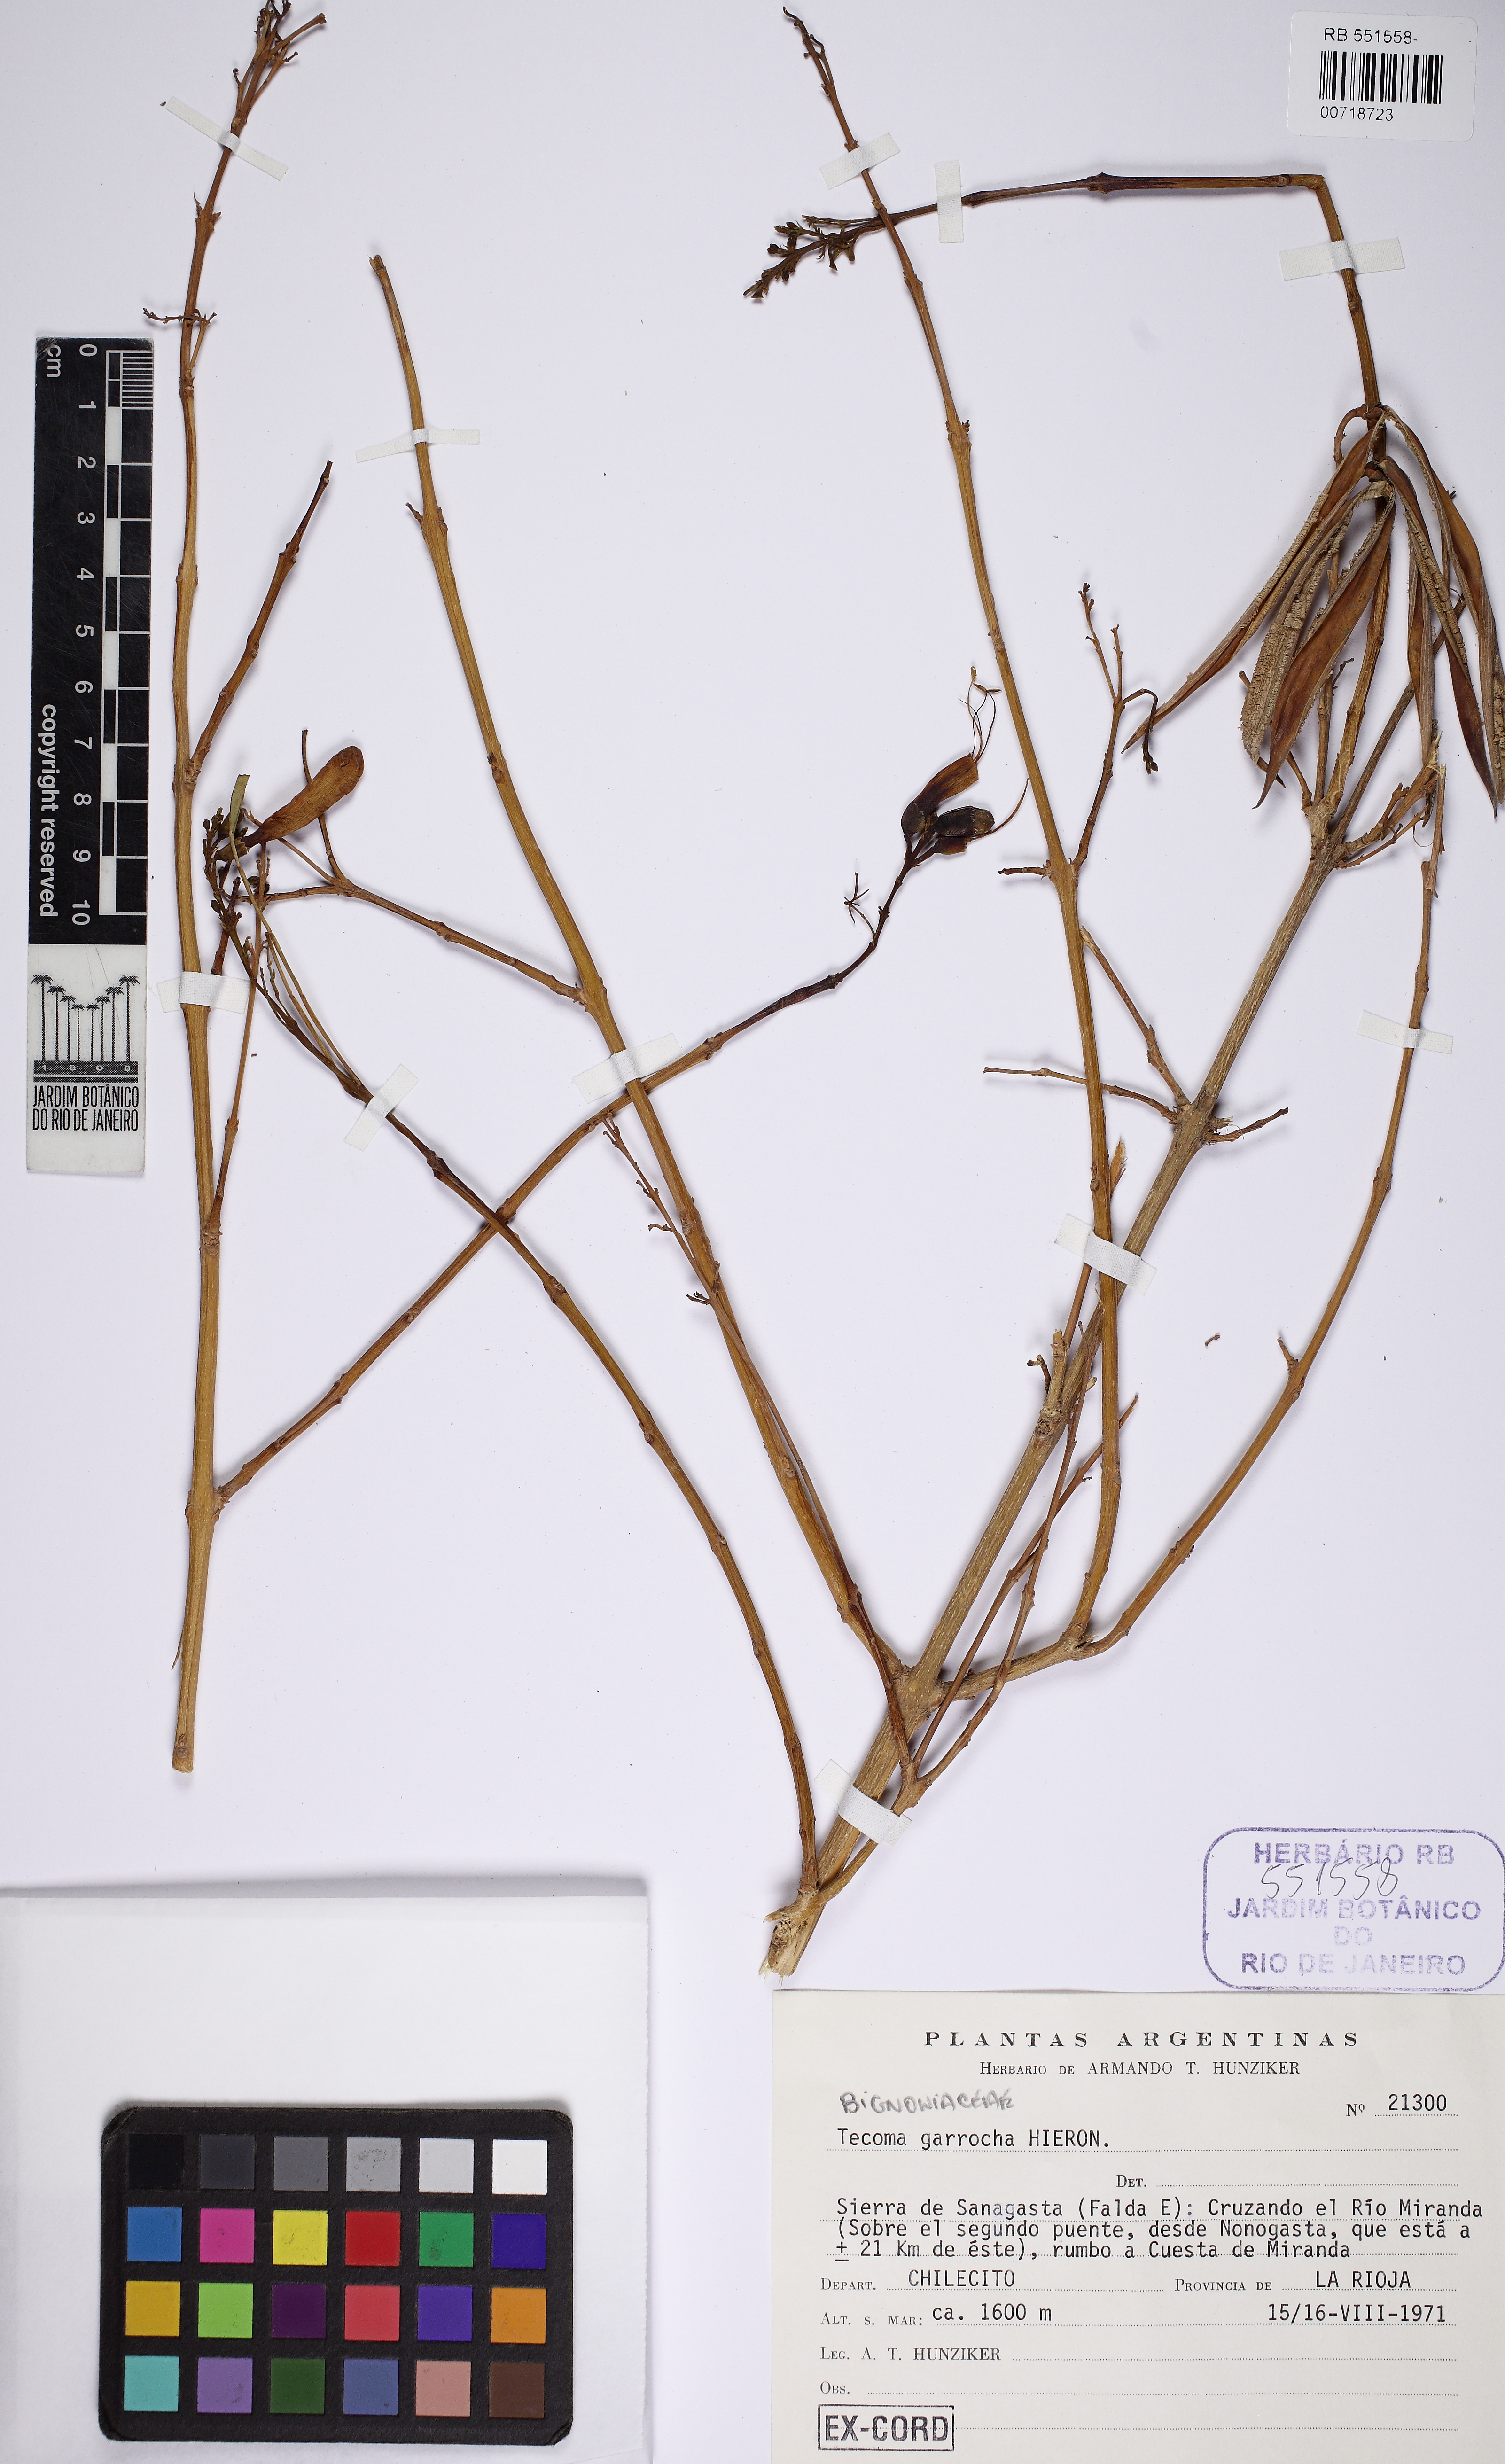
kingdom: Plantae
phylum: Tracheophyta
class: Magnoliopsida
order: Lamiales
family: Bignoniaceae
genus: Tecoma
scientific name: Tecoma fulva
